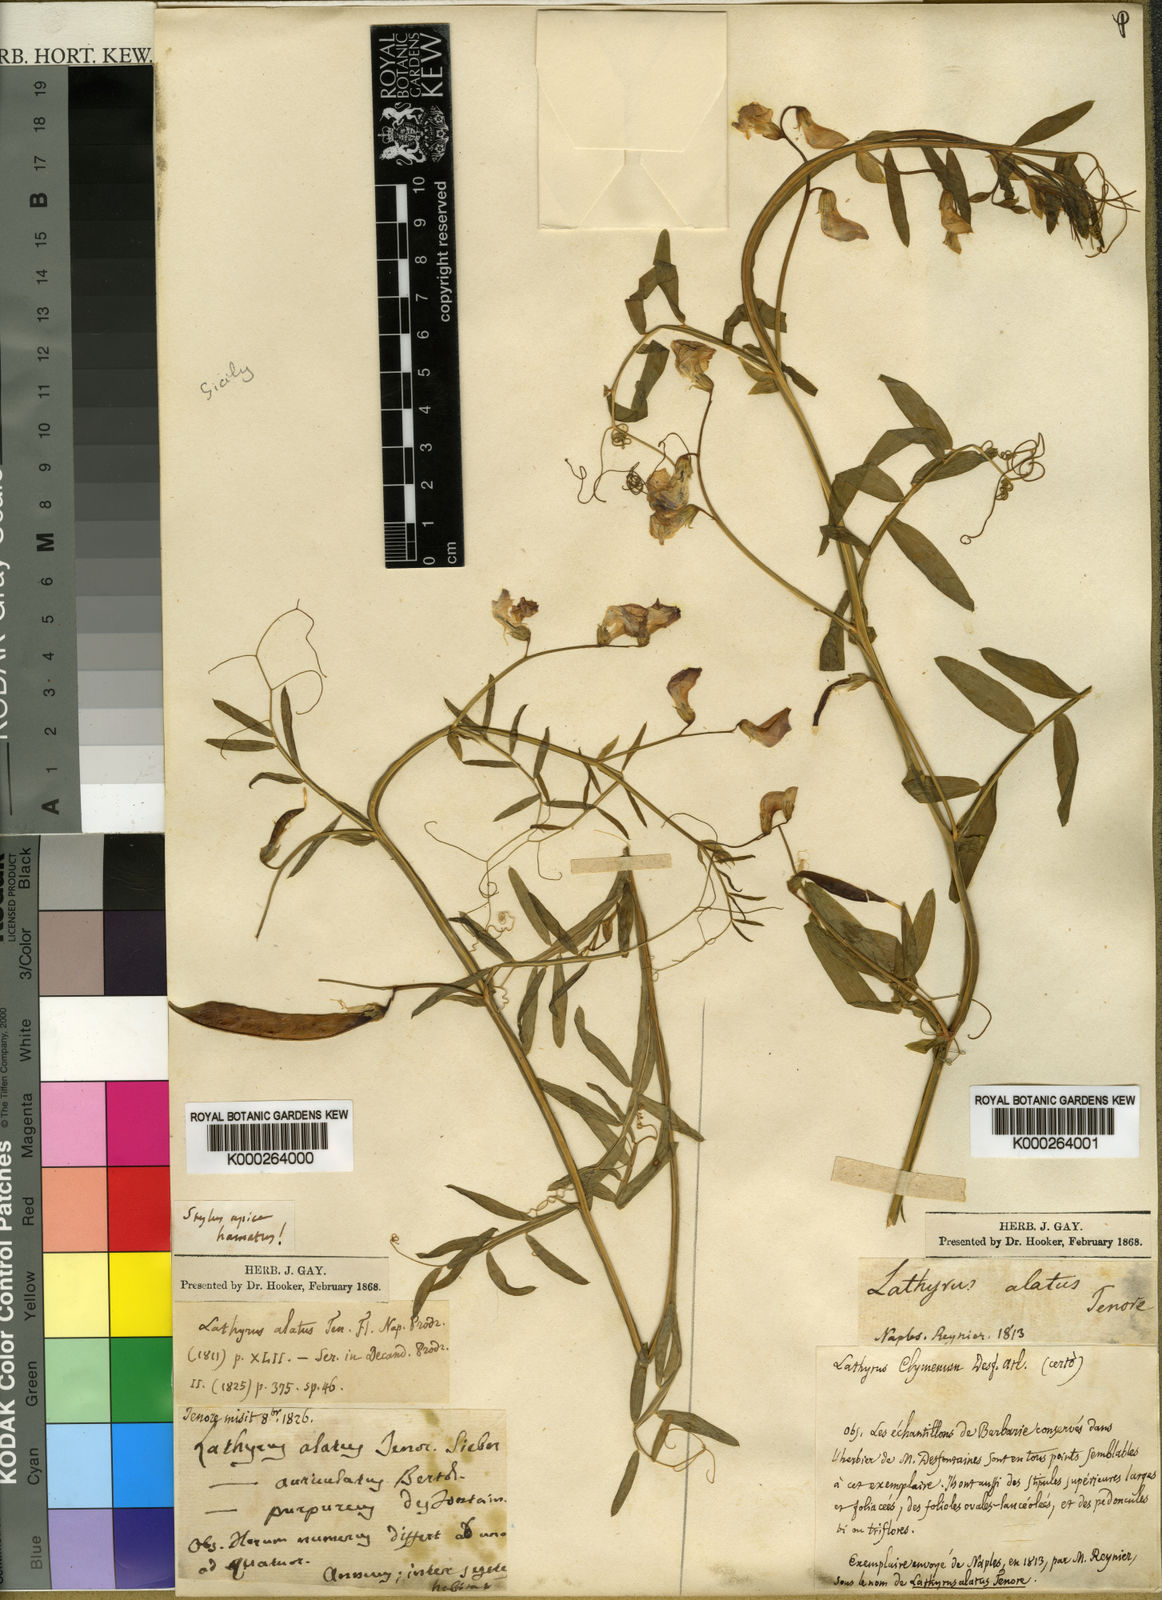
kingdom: Plantae
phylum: Tracheophyta
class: Magnoliopsida
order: Fabales
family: Fabaceae
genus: Lathyrus
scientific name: Lathyrus clymenum
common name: Spanish vetchling
